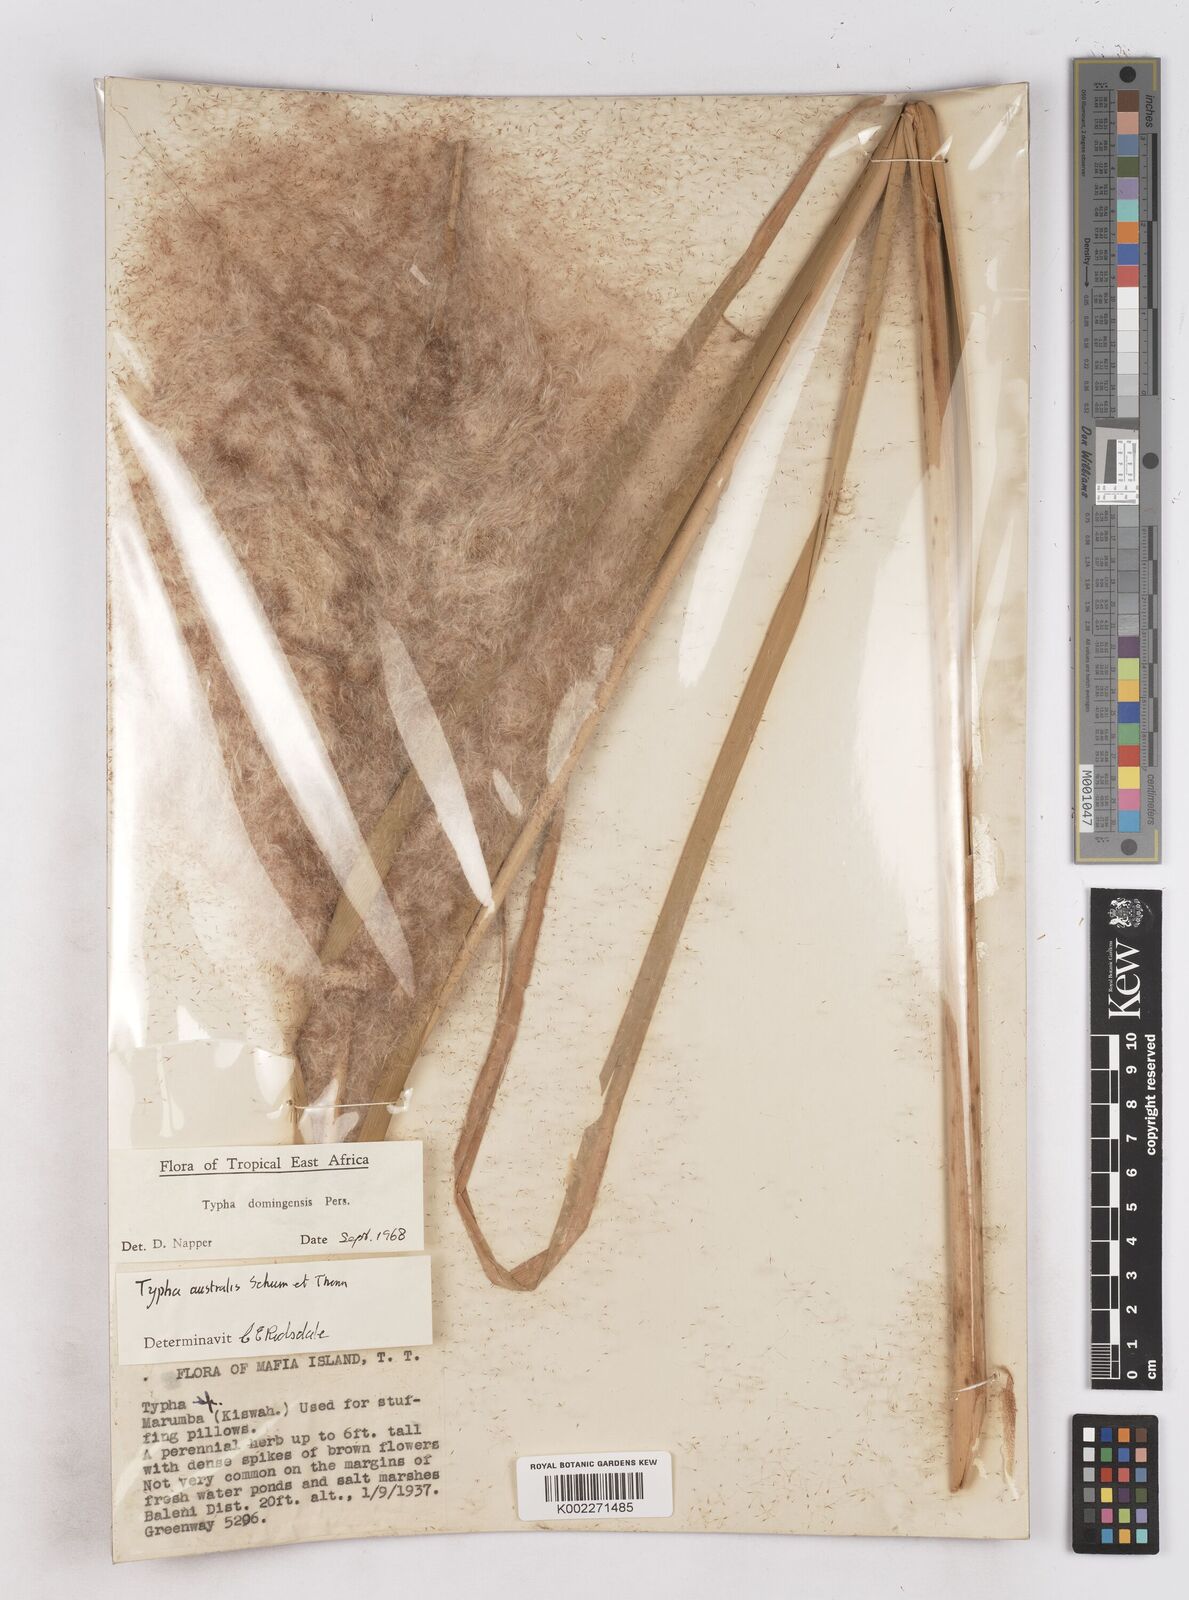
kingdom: Plantae
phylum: Tracheophyta
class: Liliopsida
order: Poales
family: Typhaceae
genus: Typha
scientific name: Typha domingensis
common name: Southern cattail
